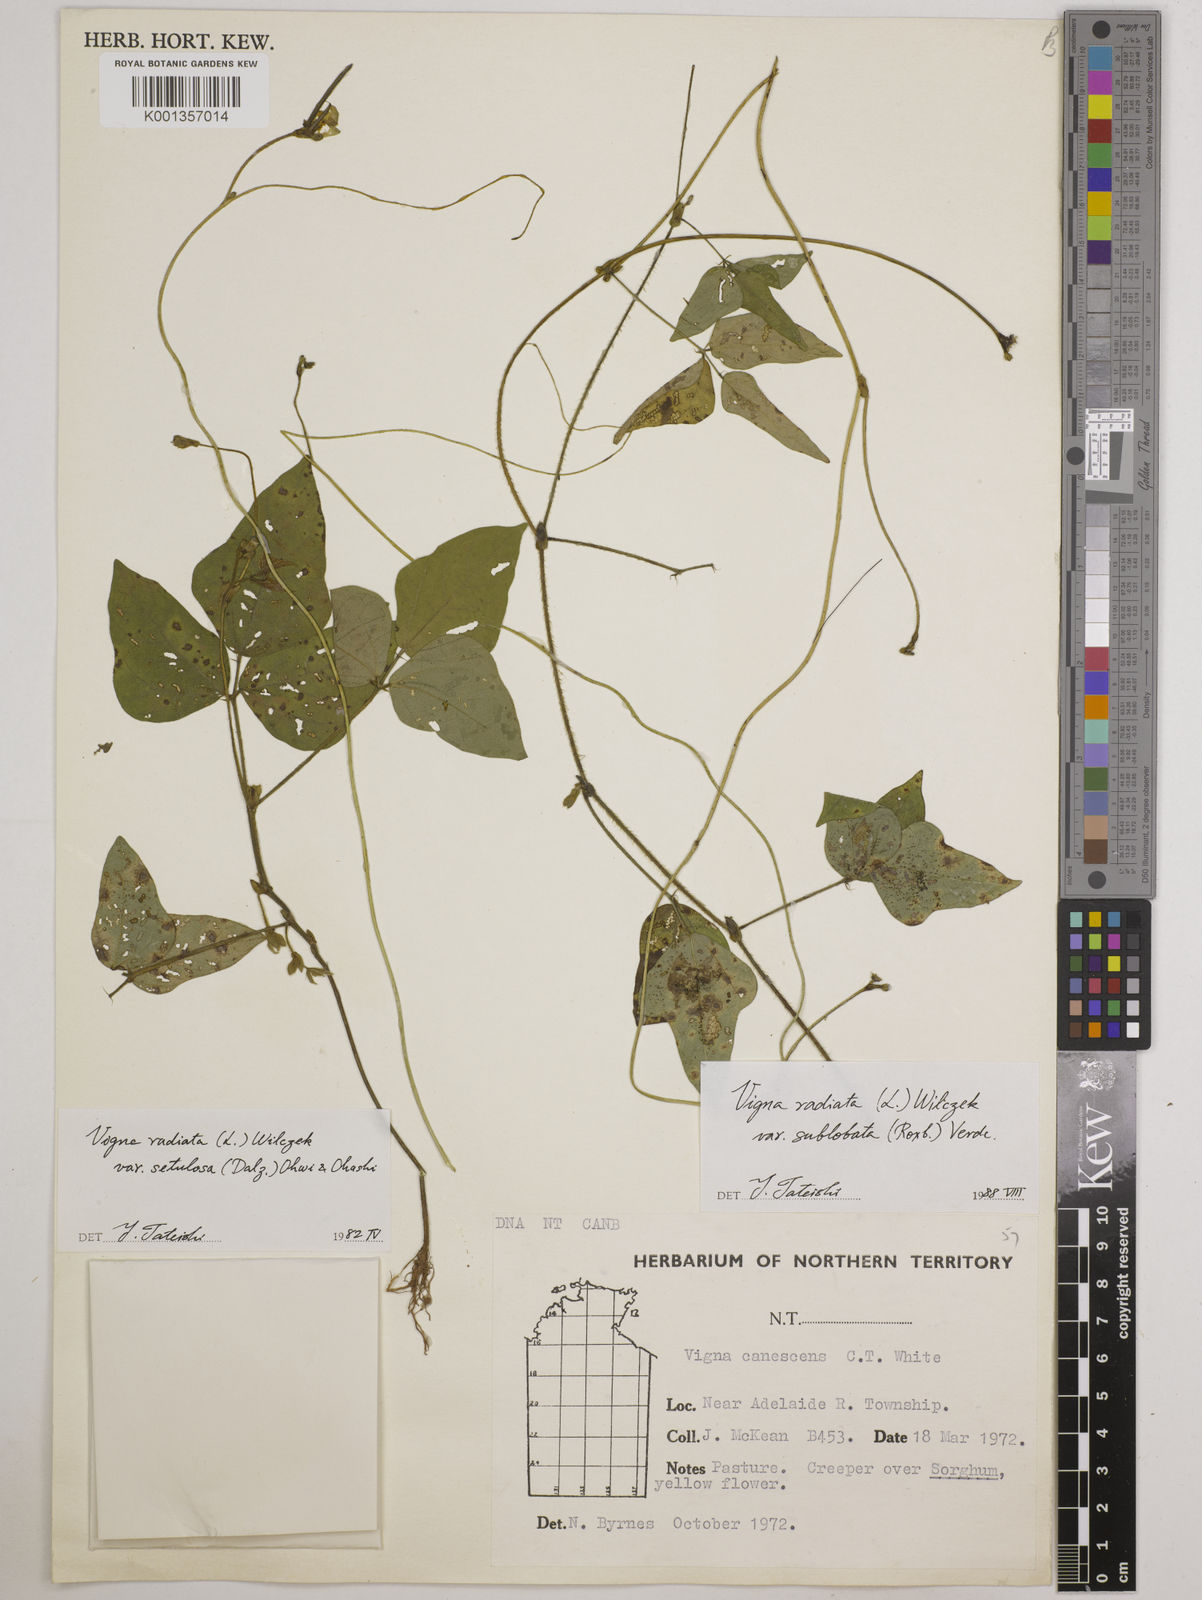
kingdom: Plantae
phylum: Tracheophyta
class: Magnoliopsida
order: Fabales
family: Fabaceae
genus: Vigna
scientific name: Vigna radiata
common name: Mung-bean
